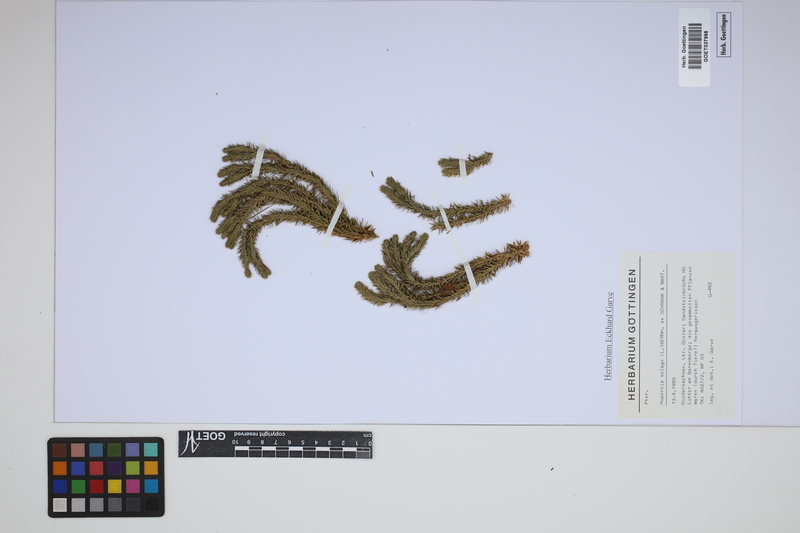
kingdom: Plantae
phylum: Tracheophyta
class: Lycopodiopsida
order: Lycopodiales
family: Lycopodiaceae
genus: Huperzia
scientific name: Huperzia selago
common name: Northern firmoss
